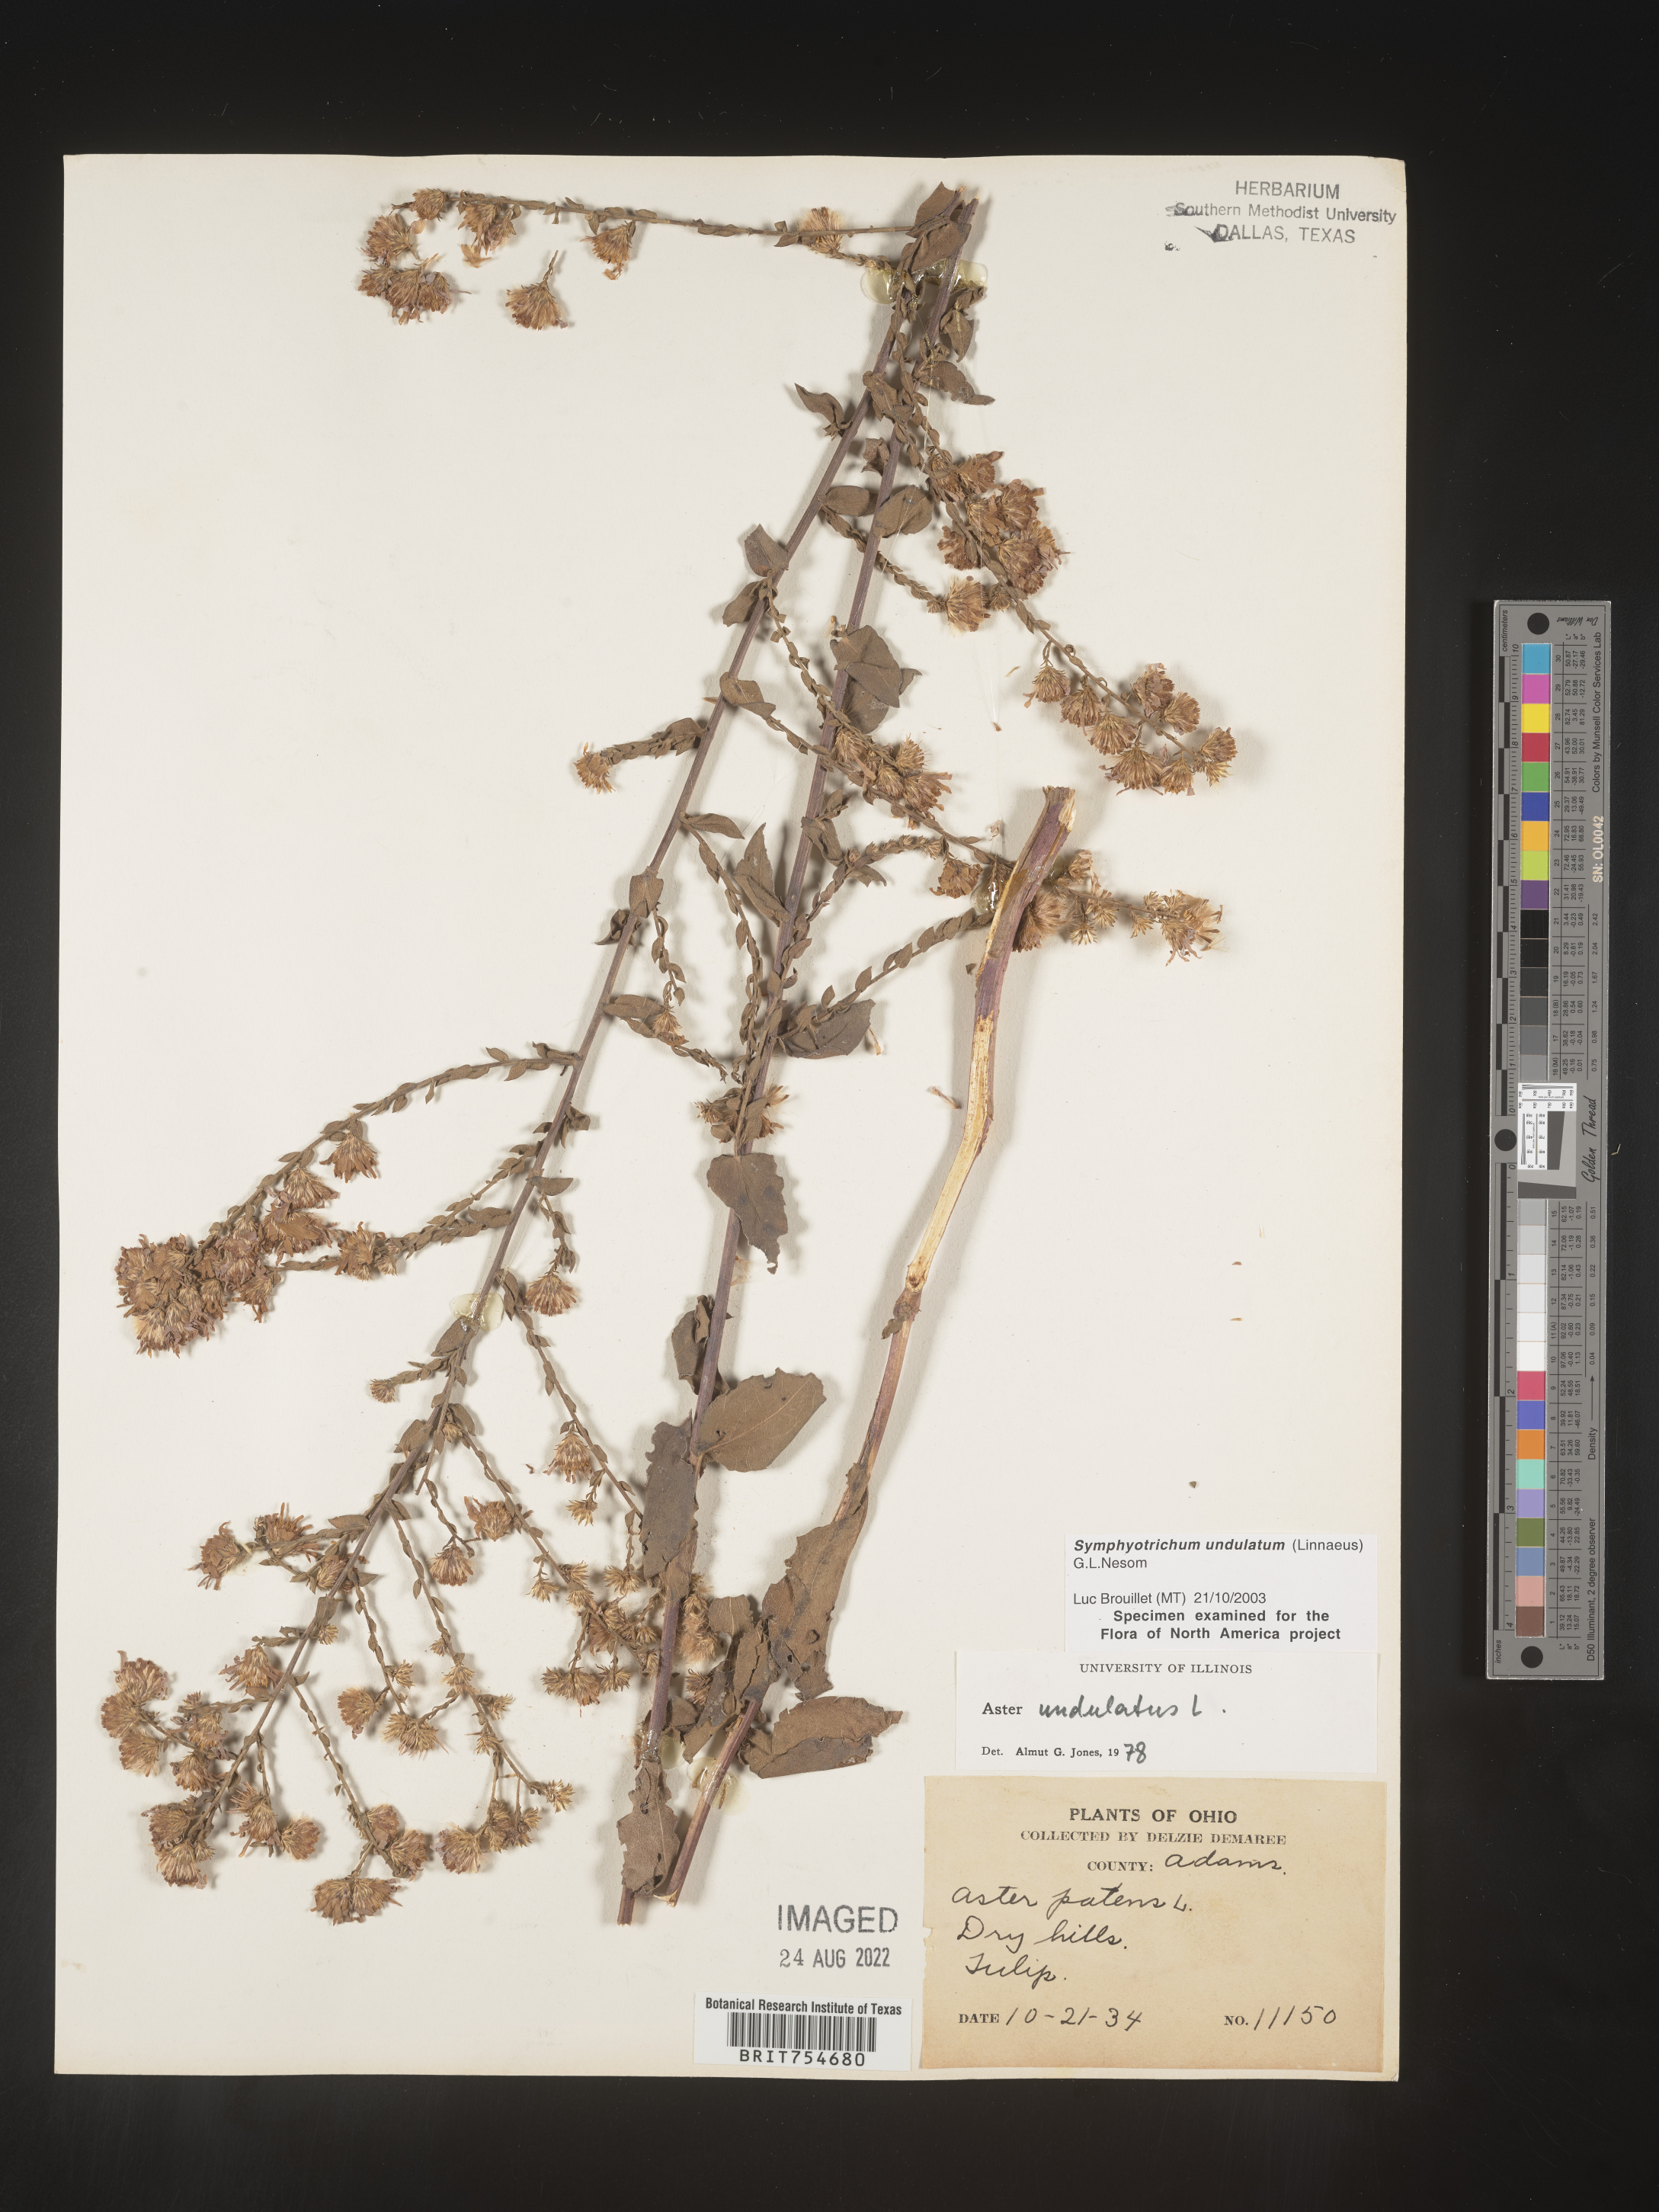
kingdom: Plantae
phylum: Tracheophyta
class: Magnoliopsida
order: Asterales
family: Asteraceae
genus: Symphyotrichum
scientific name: Symphyotrichum undulatum
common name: Clasping heart-leaf aster
